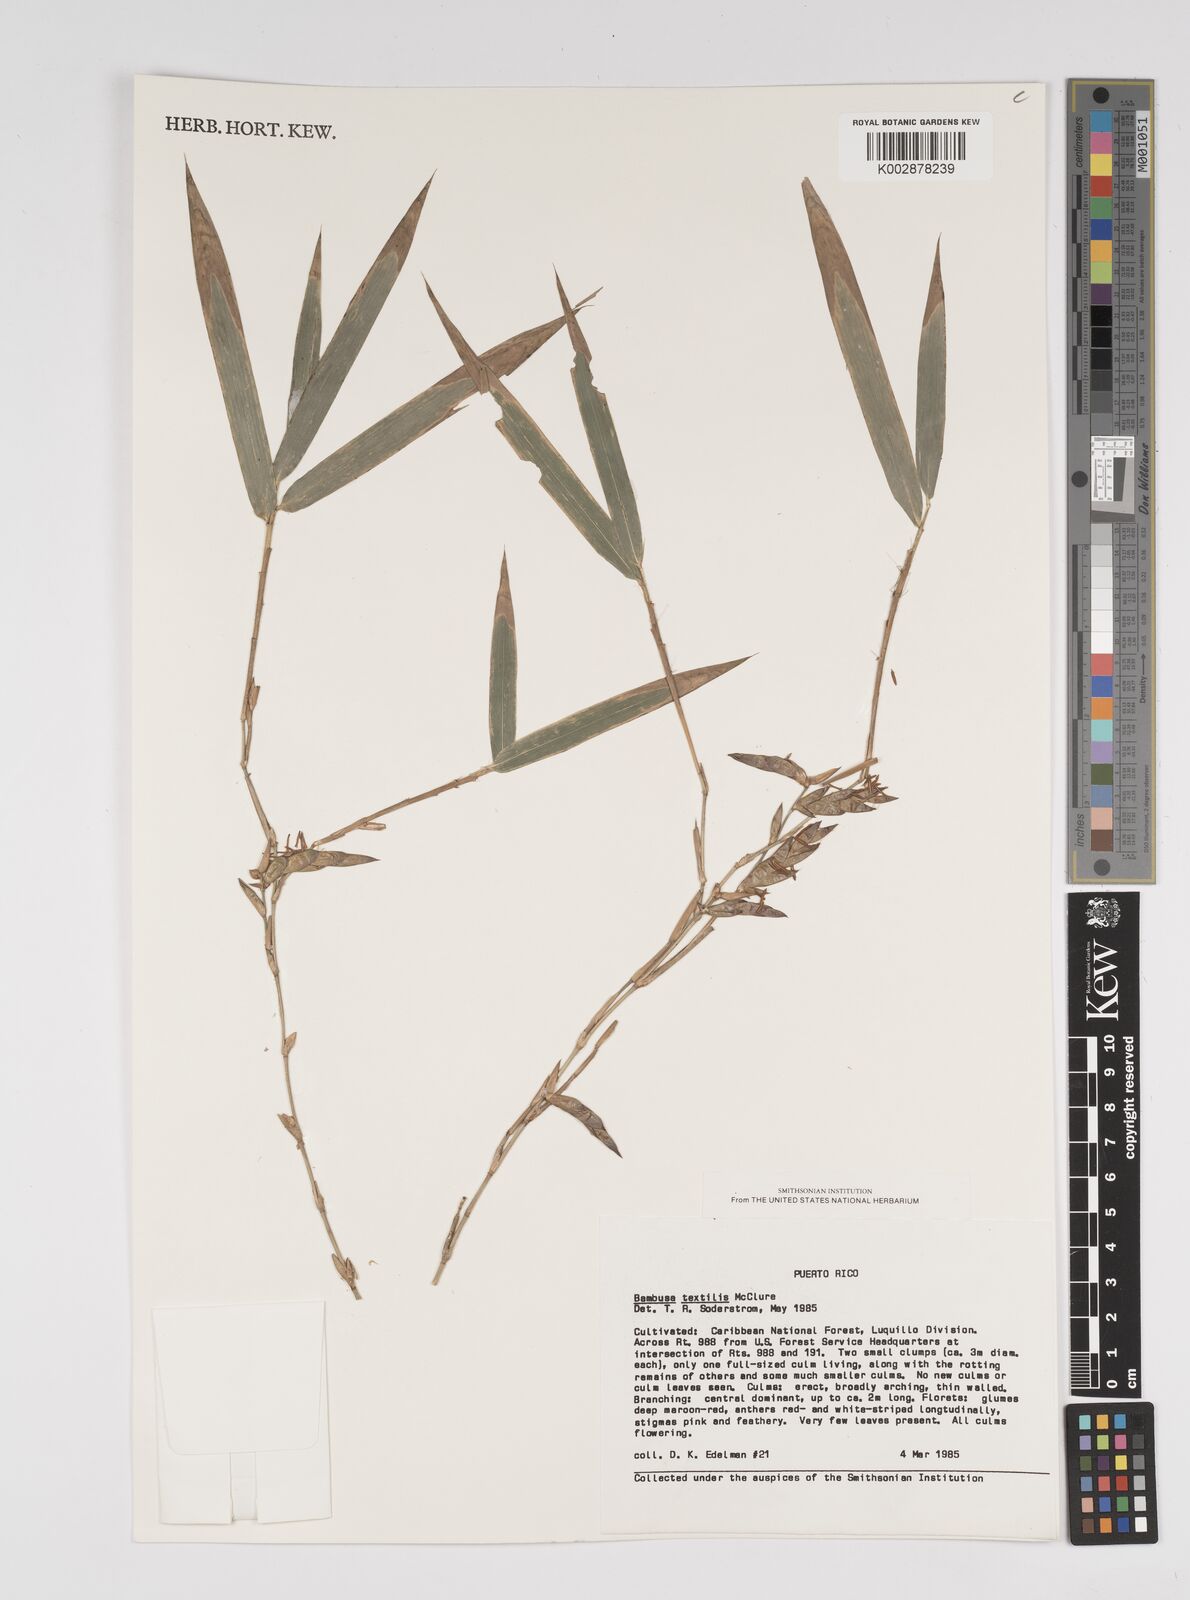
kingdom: Plantae
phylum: Tracheophyta
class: Liliopsida
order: Poales
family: Poaceae
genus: Bambusa
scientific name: Bambusa textilis
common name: Weaver's bamboo
